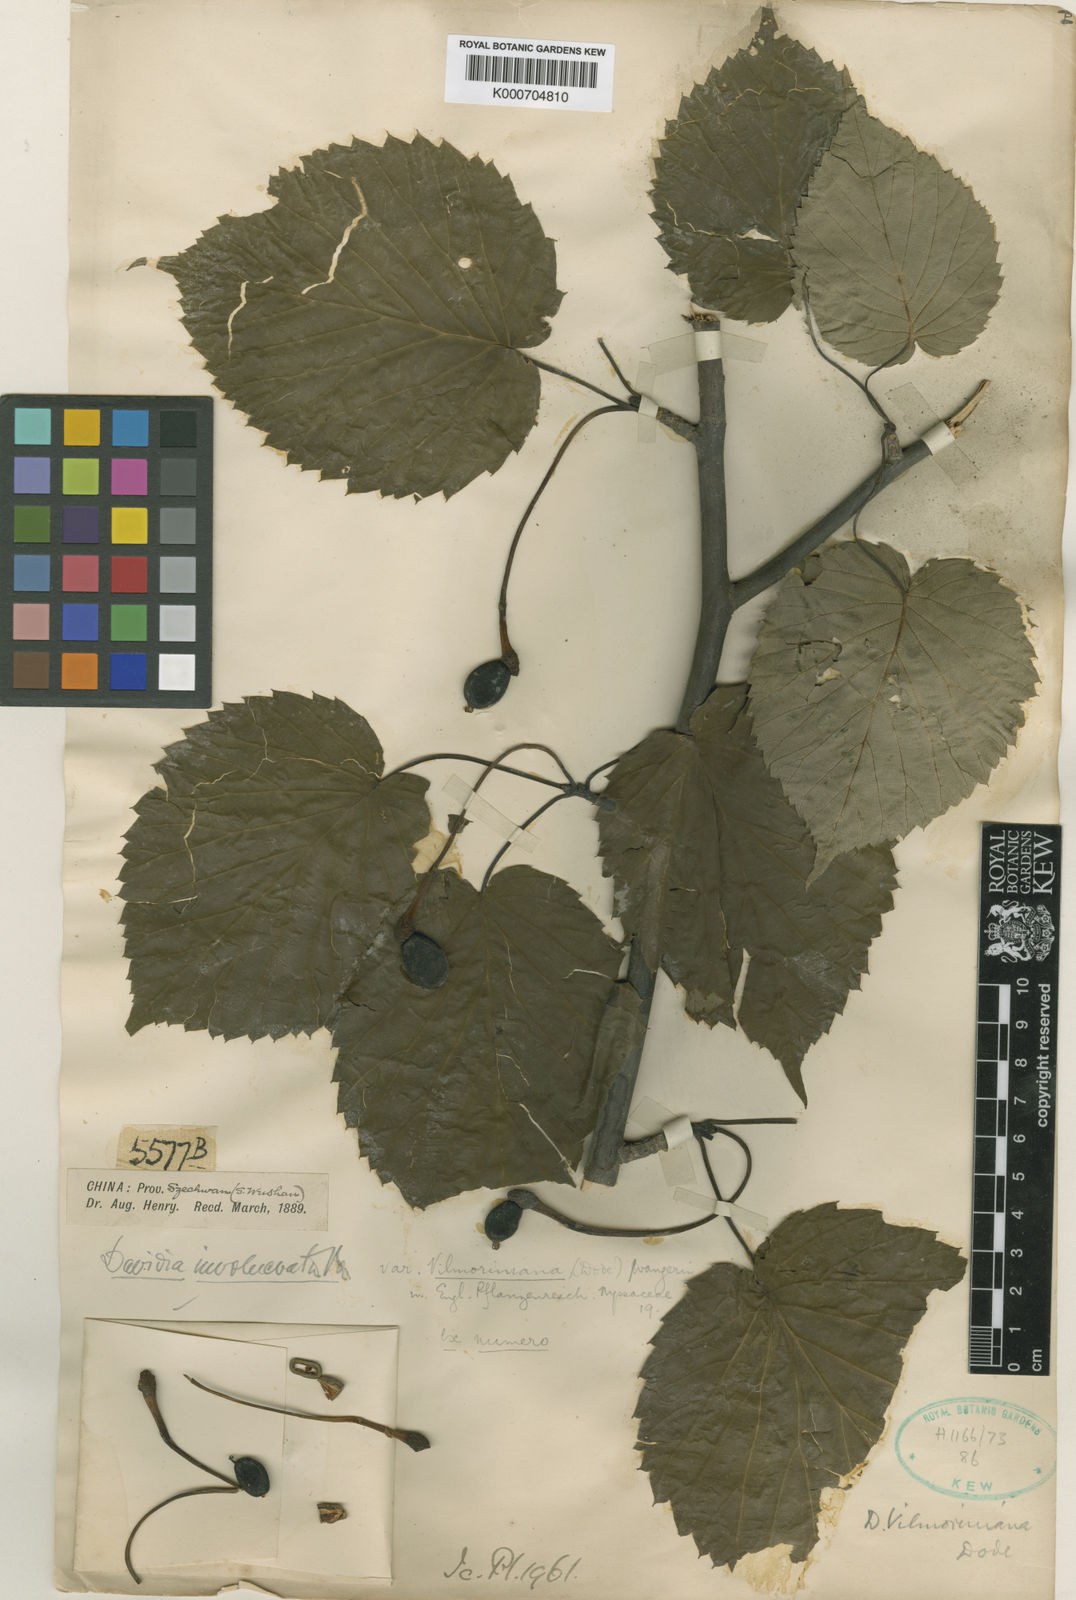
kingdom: Plantae
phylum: Tracheophyta
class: Magnoliopsida
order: Cornales
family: Nyssaceae
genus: Davidia
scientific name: Davidia involucrata
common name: Handkerchief-tree
